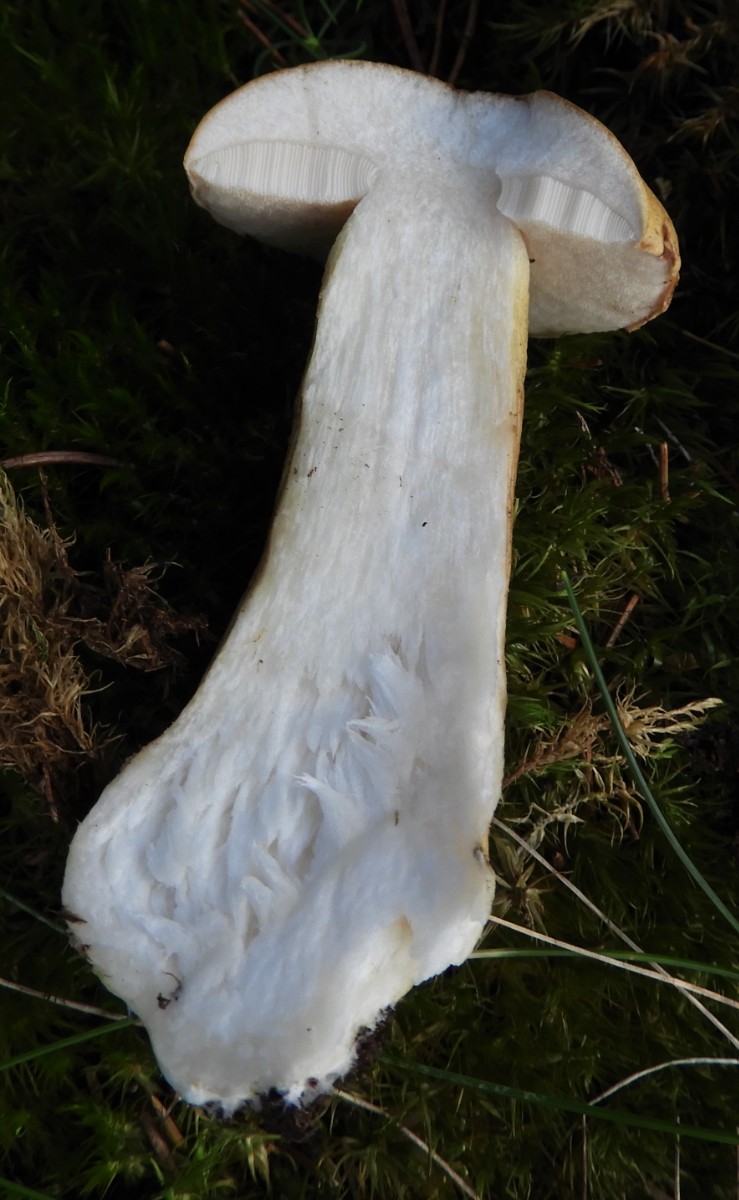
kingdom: Fungi
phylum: Basidiomycota
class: Agaricomycetes
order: Boletales
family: Boletaceae
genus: Tylopilus
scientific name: Tylopilus felleus
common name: galderørhat
